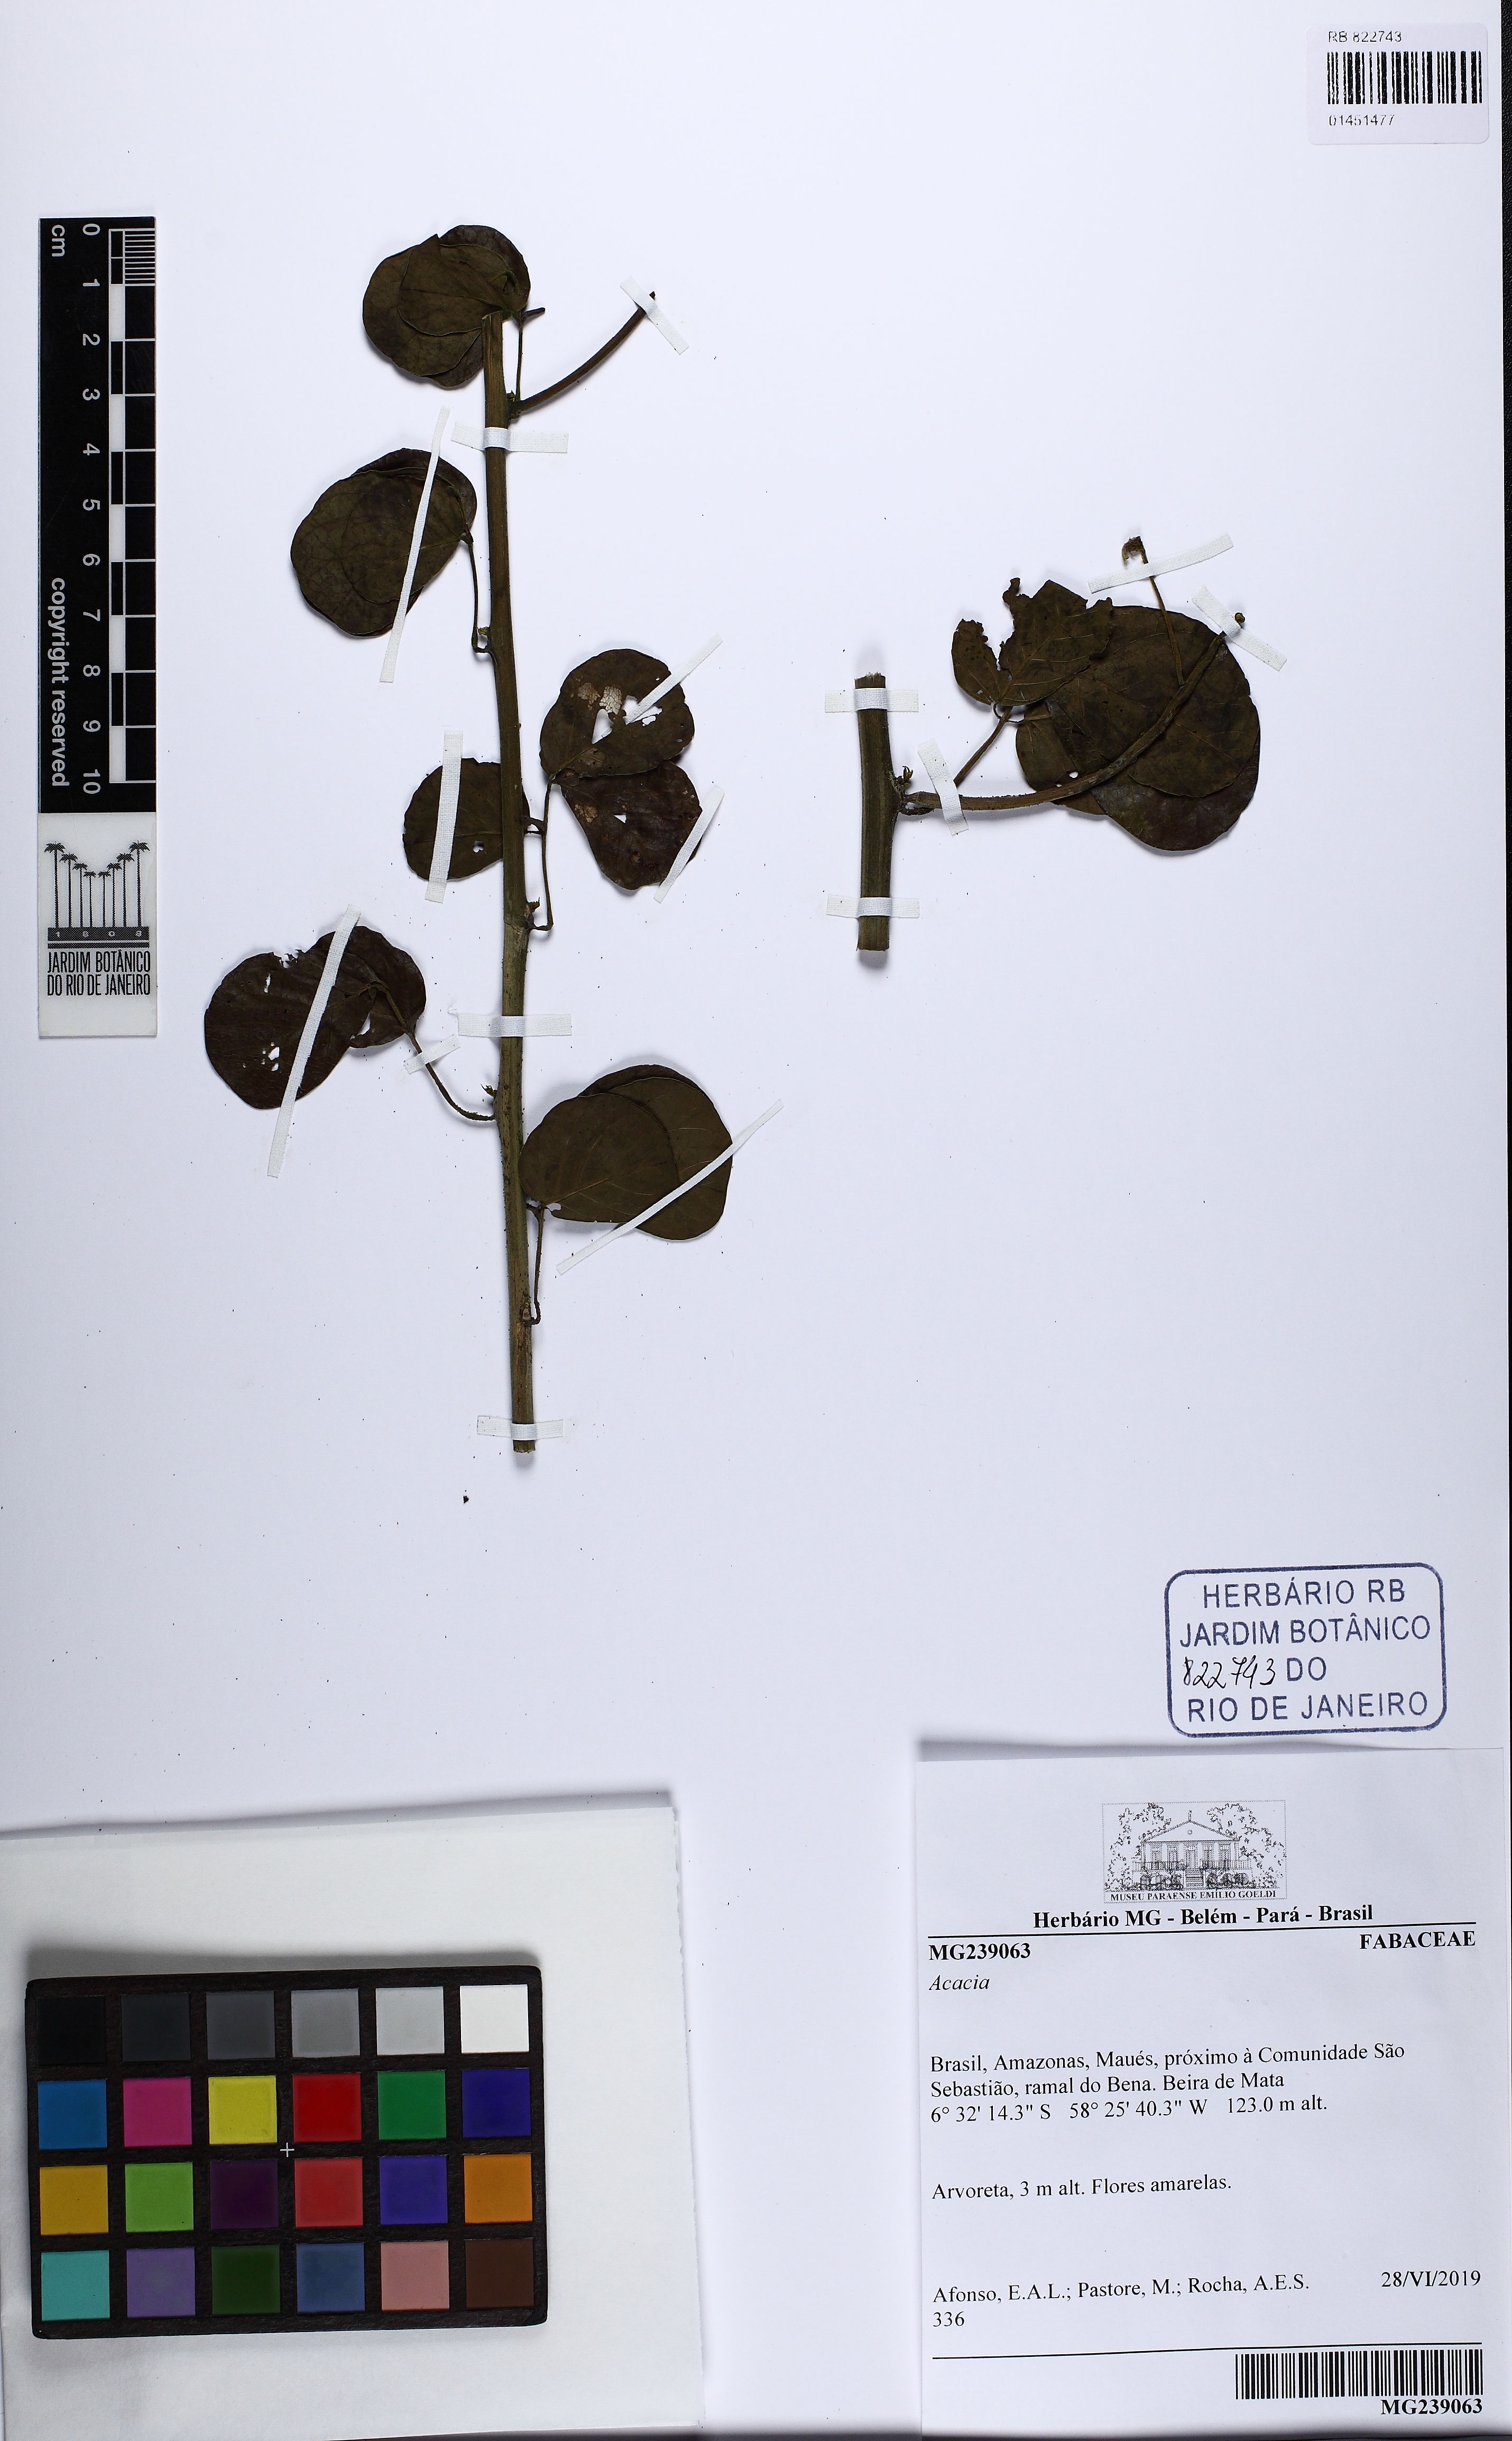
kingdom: Plantae
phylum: Tracheophyta
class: Magnoliopsida
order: Fabales
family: Fabaceae
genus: Acacia
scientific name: Acacia
